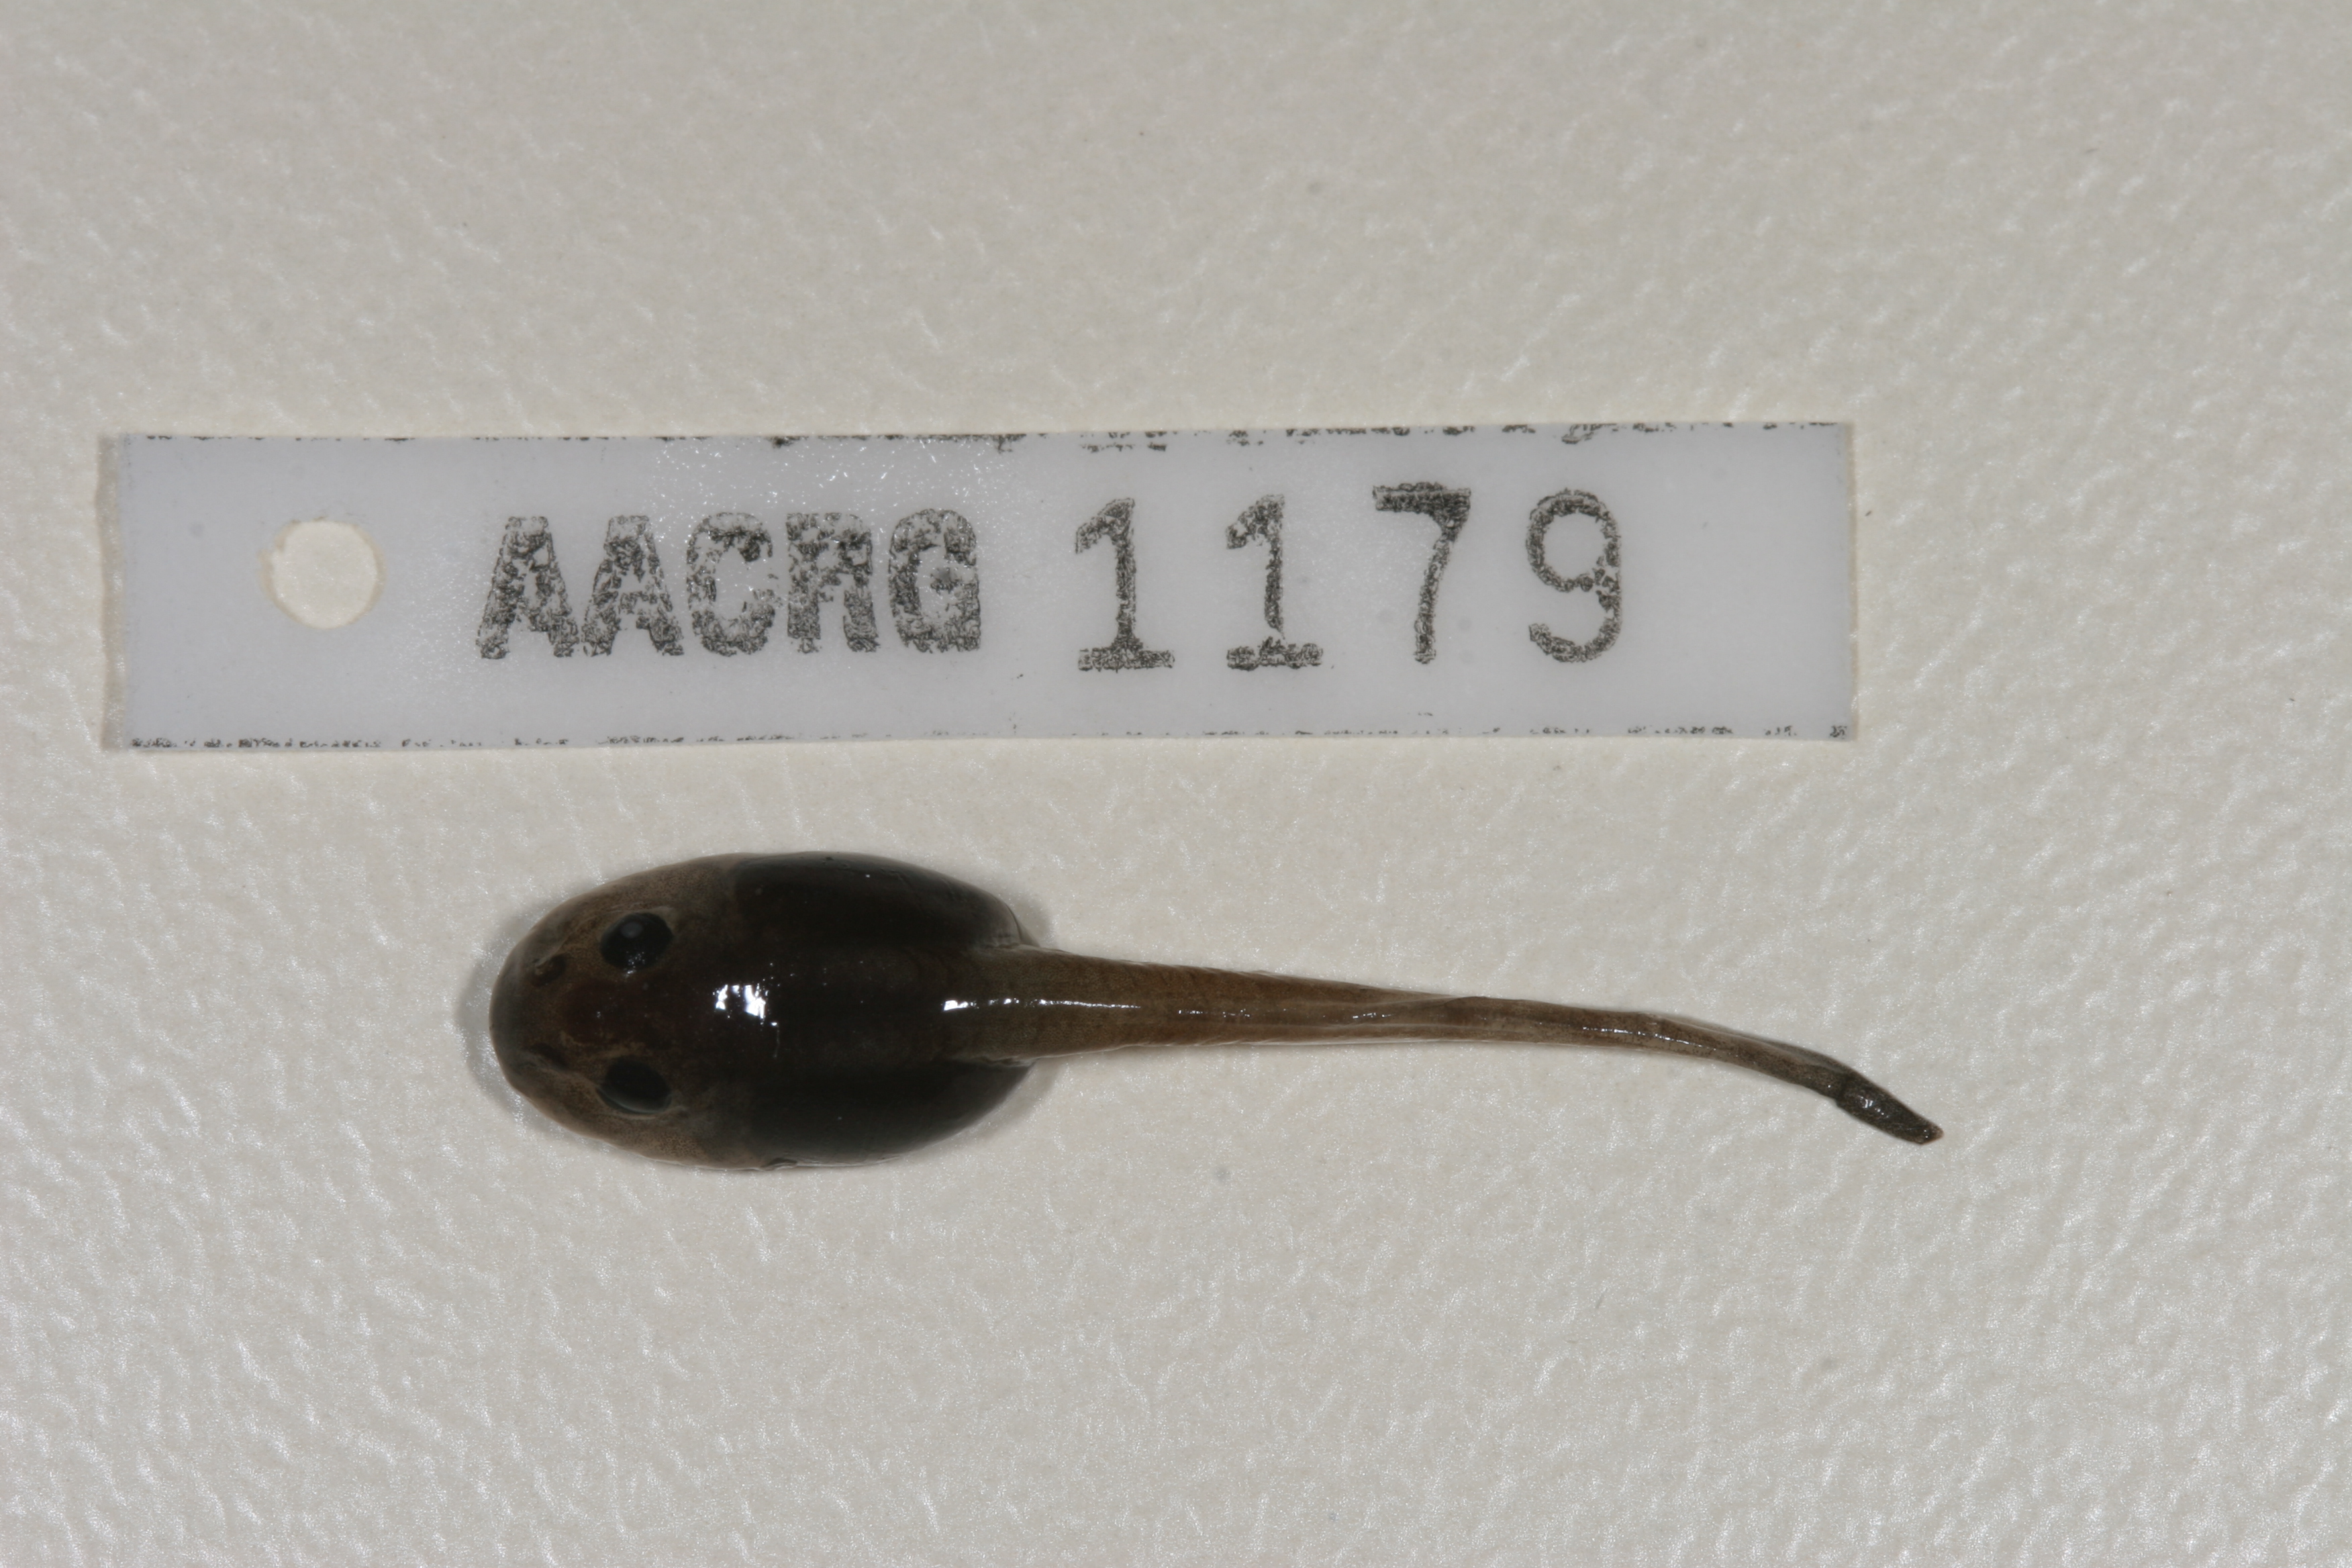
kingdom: Animalia
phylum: Chordata
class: Amphibia
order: Anura
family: Pyxicephalidae
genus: Strongylopus
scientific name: Strongylopus wageri
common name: Wager's stream frog
